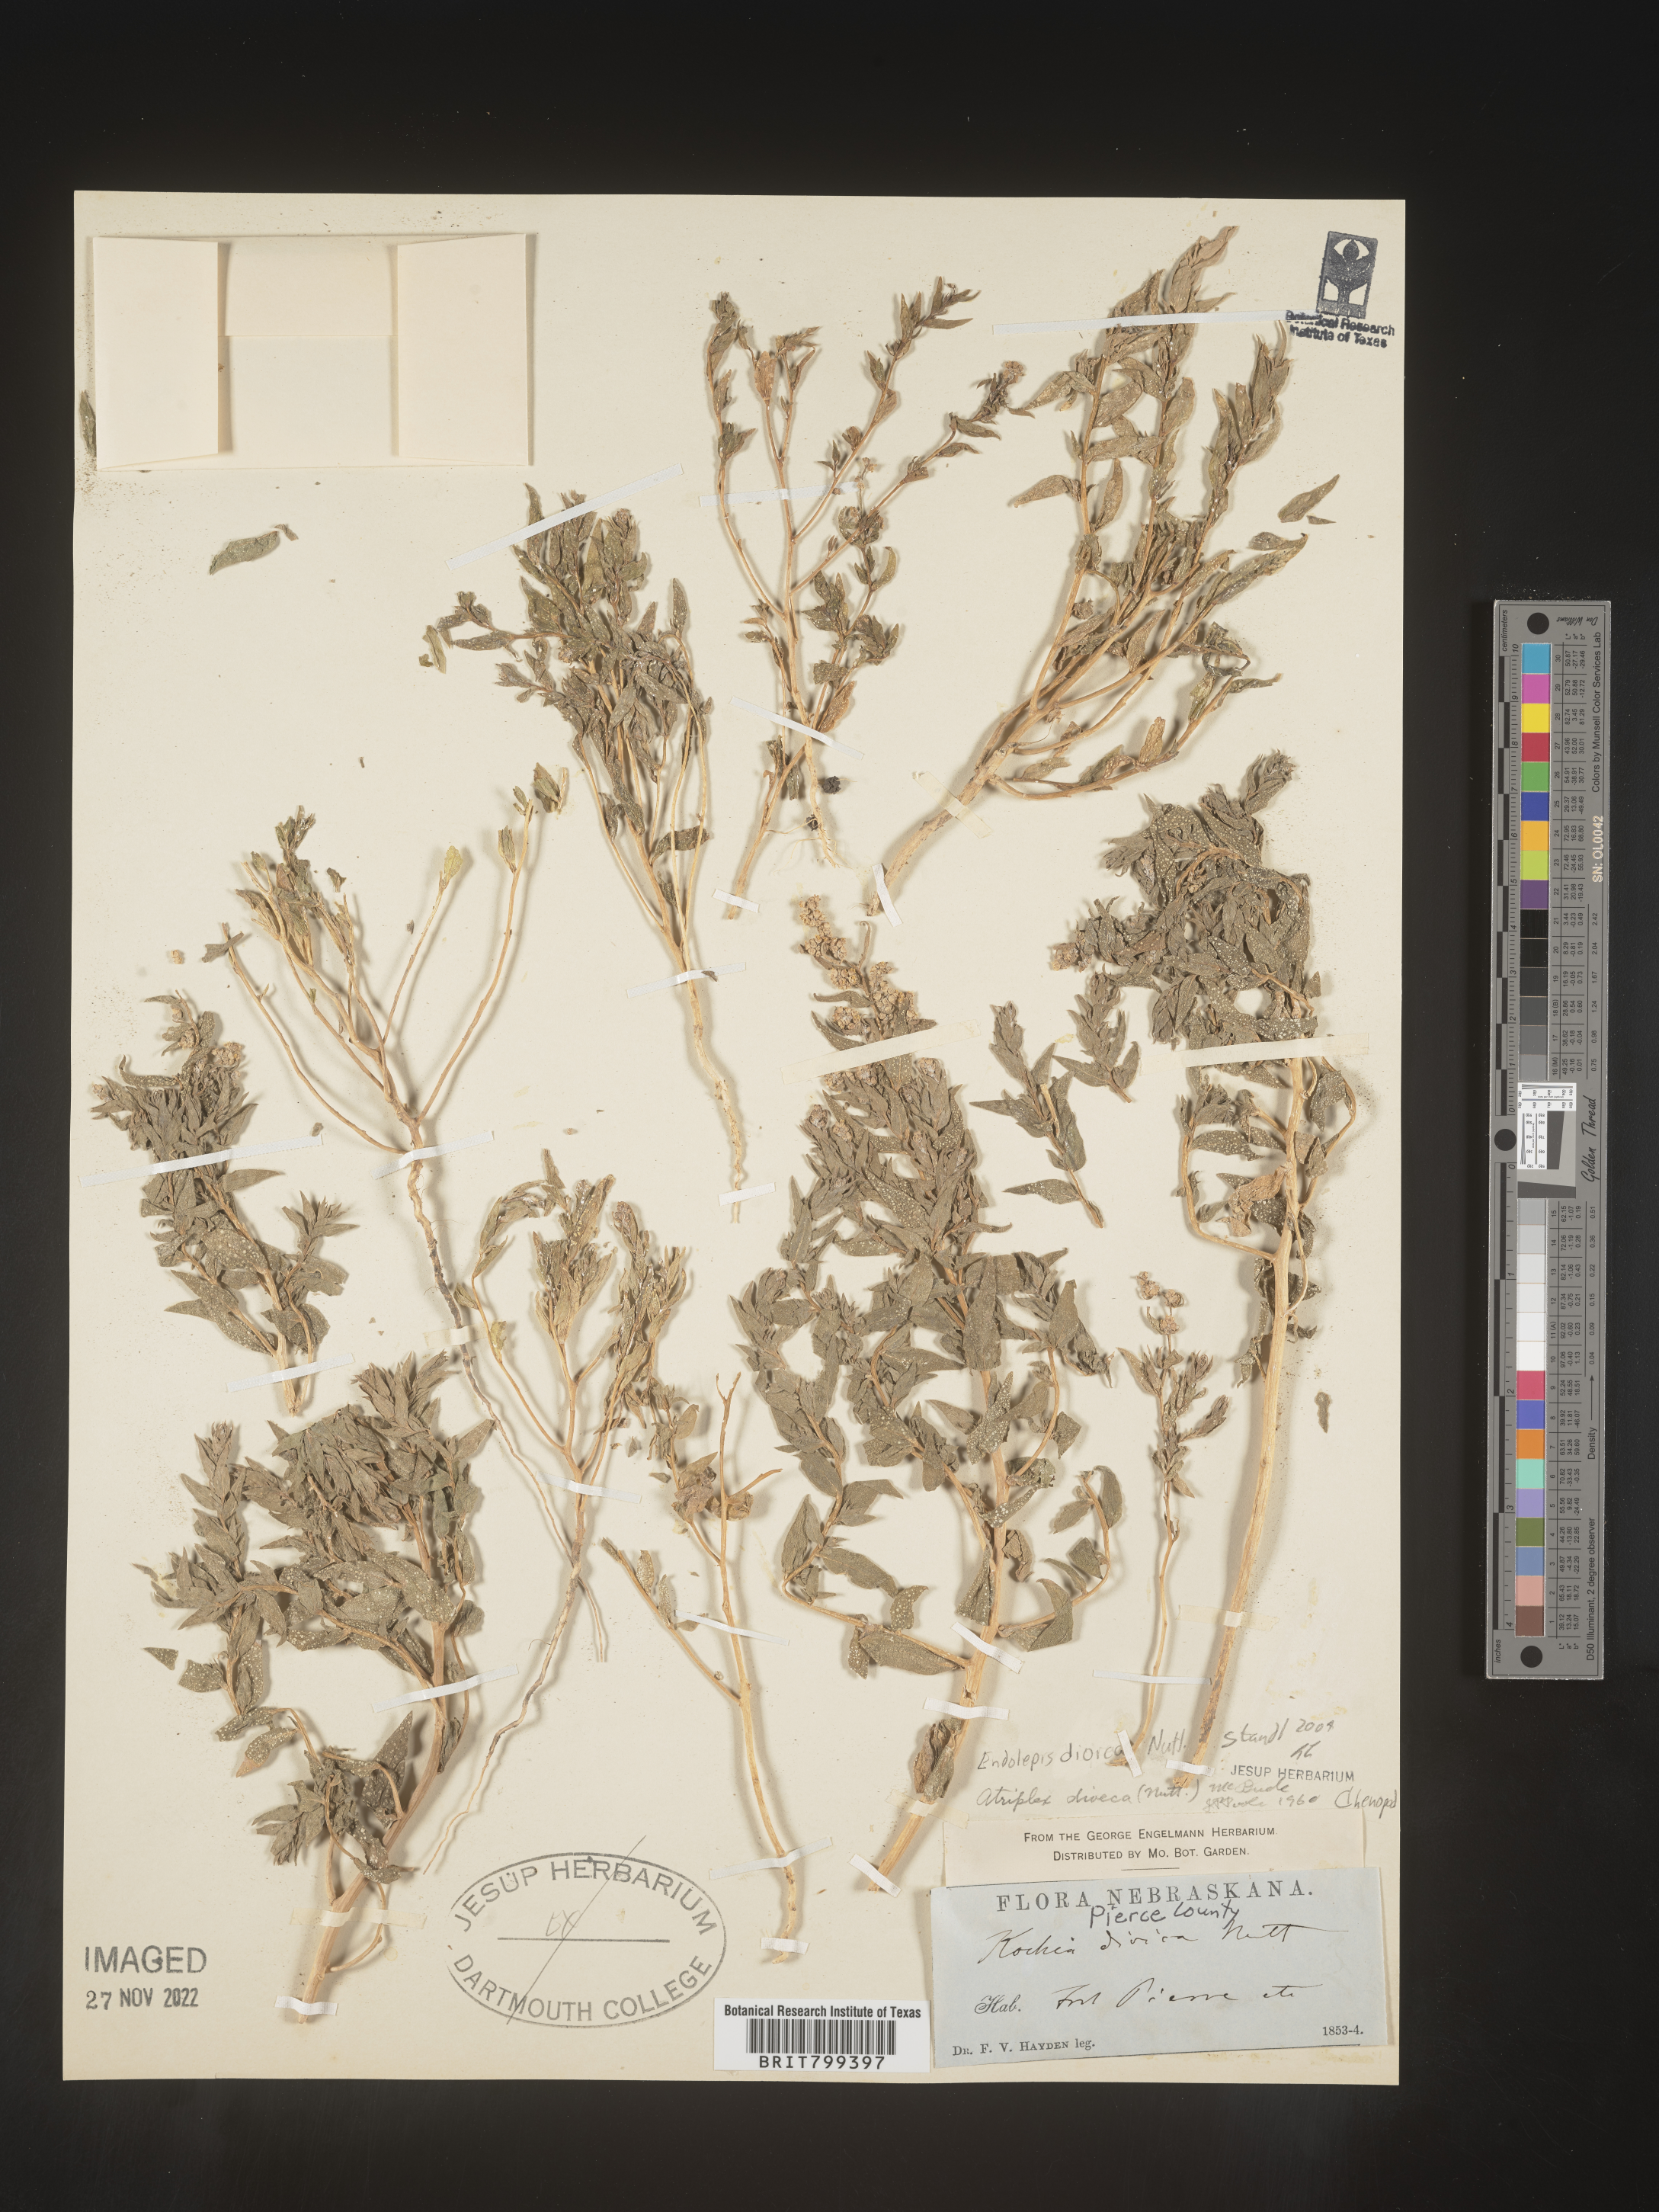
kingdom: Plantae
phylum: Tracheophyta
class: Magnoliopsida
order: Caryophyllales
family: Amaranthaceae
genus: Stutzia
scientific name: Stutzia dioica
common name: Suckley's orach
